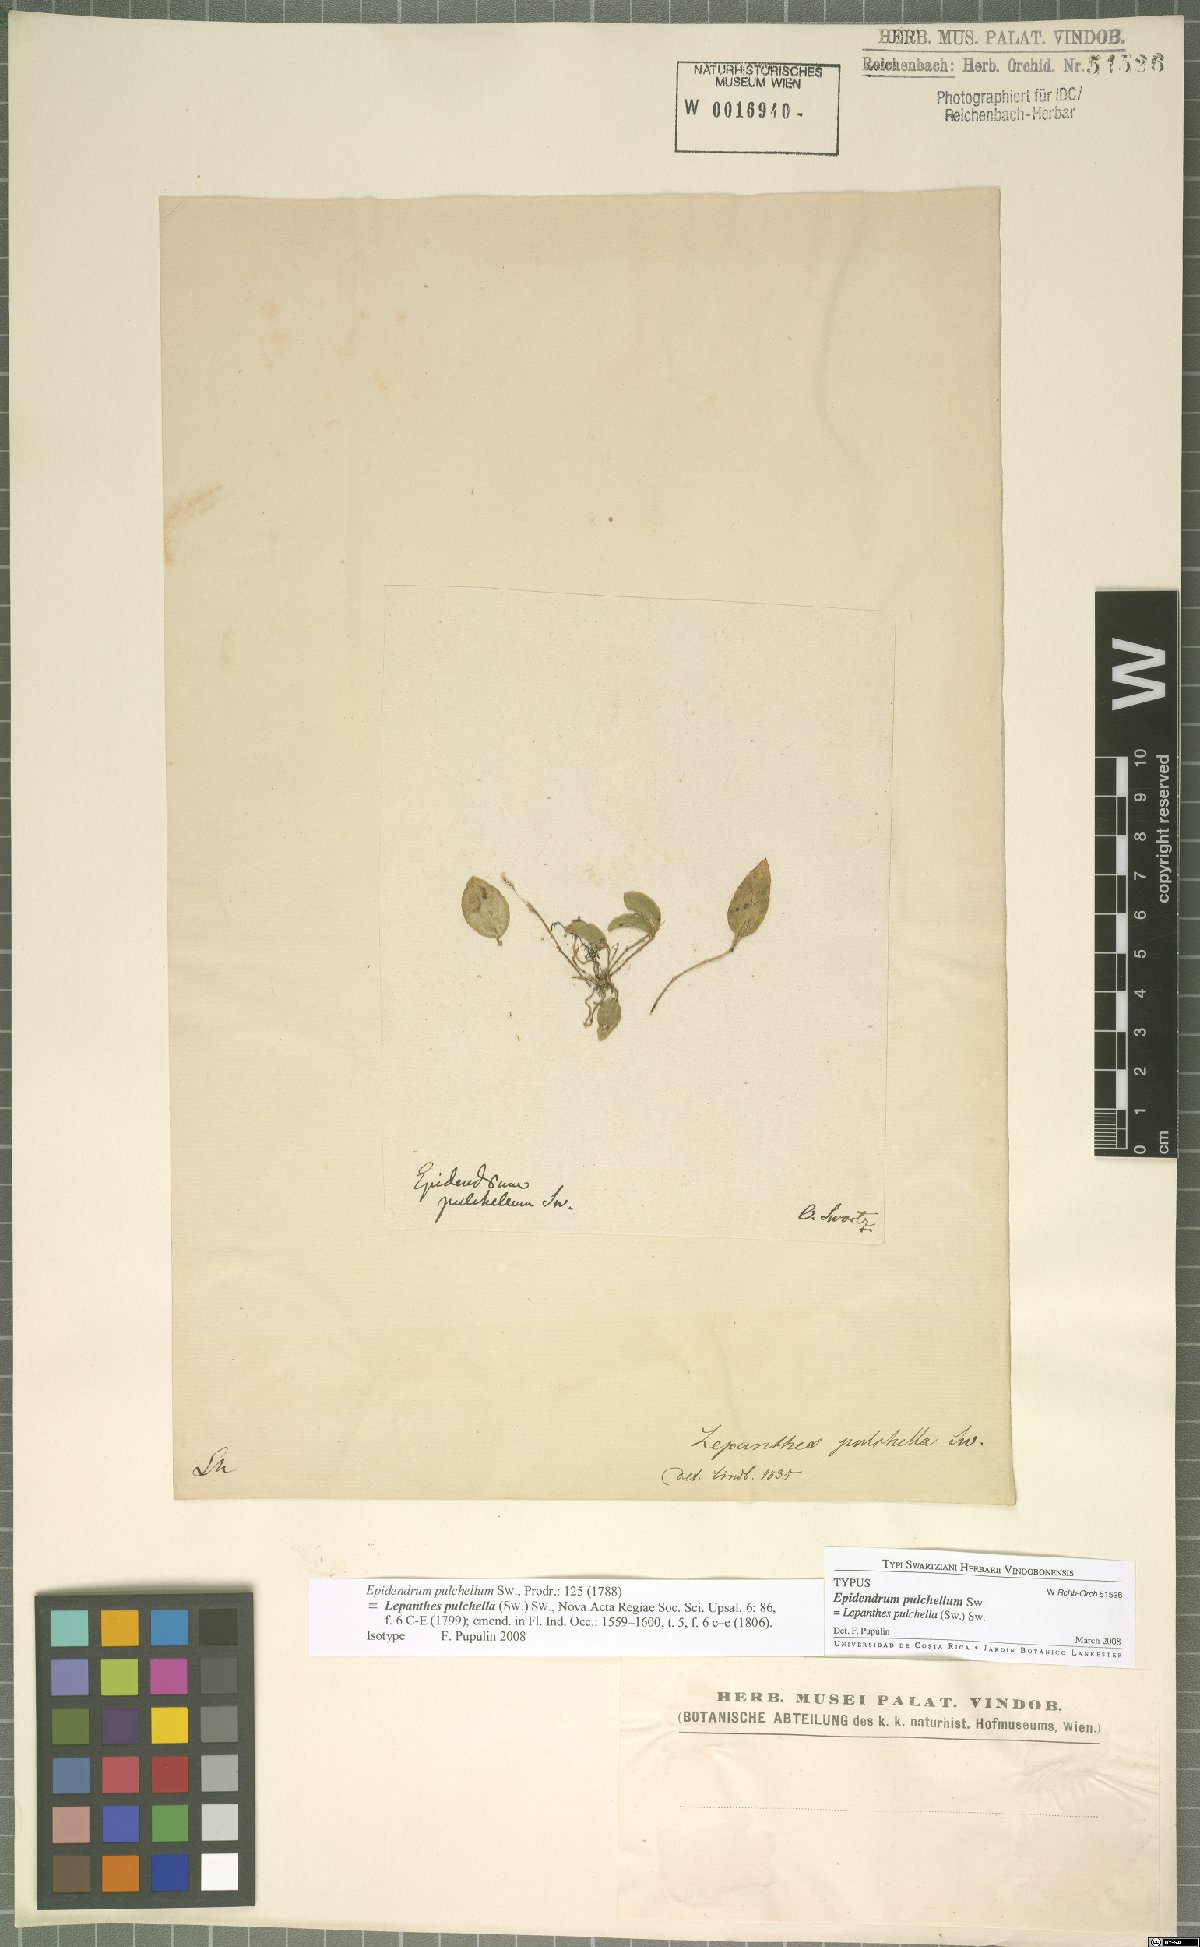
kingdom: Plantae
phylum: Tracheophyta
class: Liliopsida
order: Asparagales
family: Orchidaceae
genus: Lepanthes
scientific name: Lepanthes pulchella
